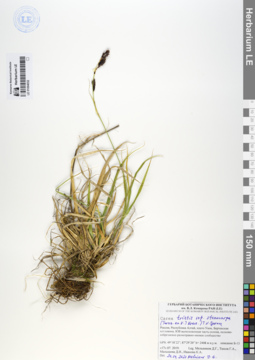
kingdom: Plantae
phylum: Tracheophyta
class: Liliopsida
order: Poales
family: Cyperaceae
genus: Carex
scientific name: Carex stenocarpa
